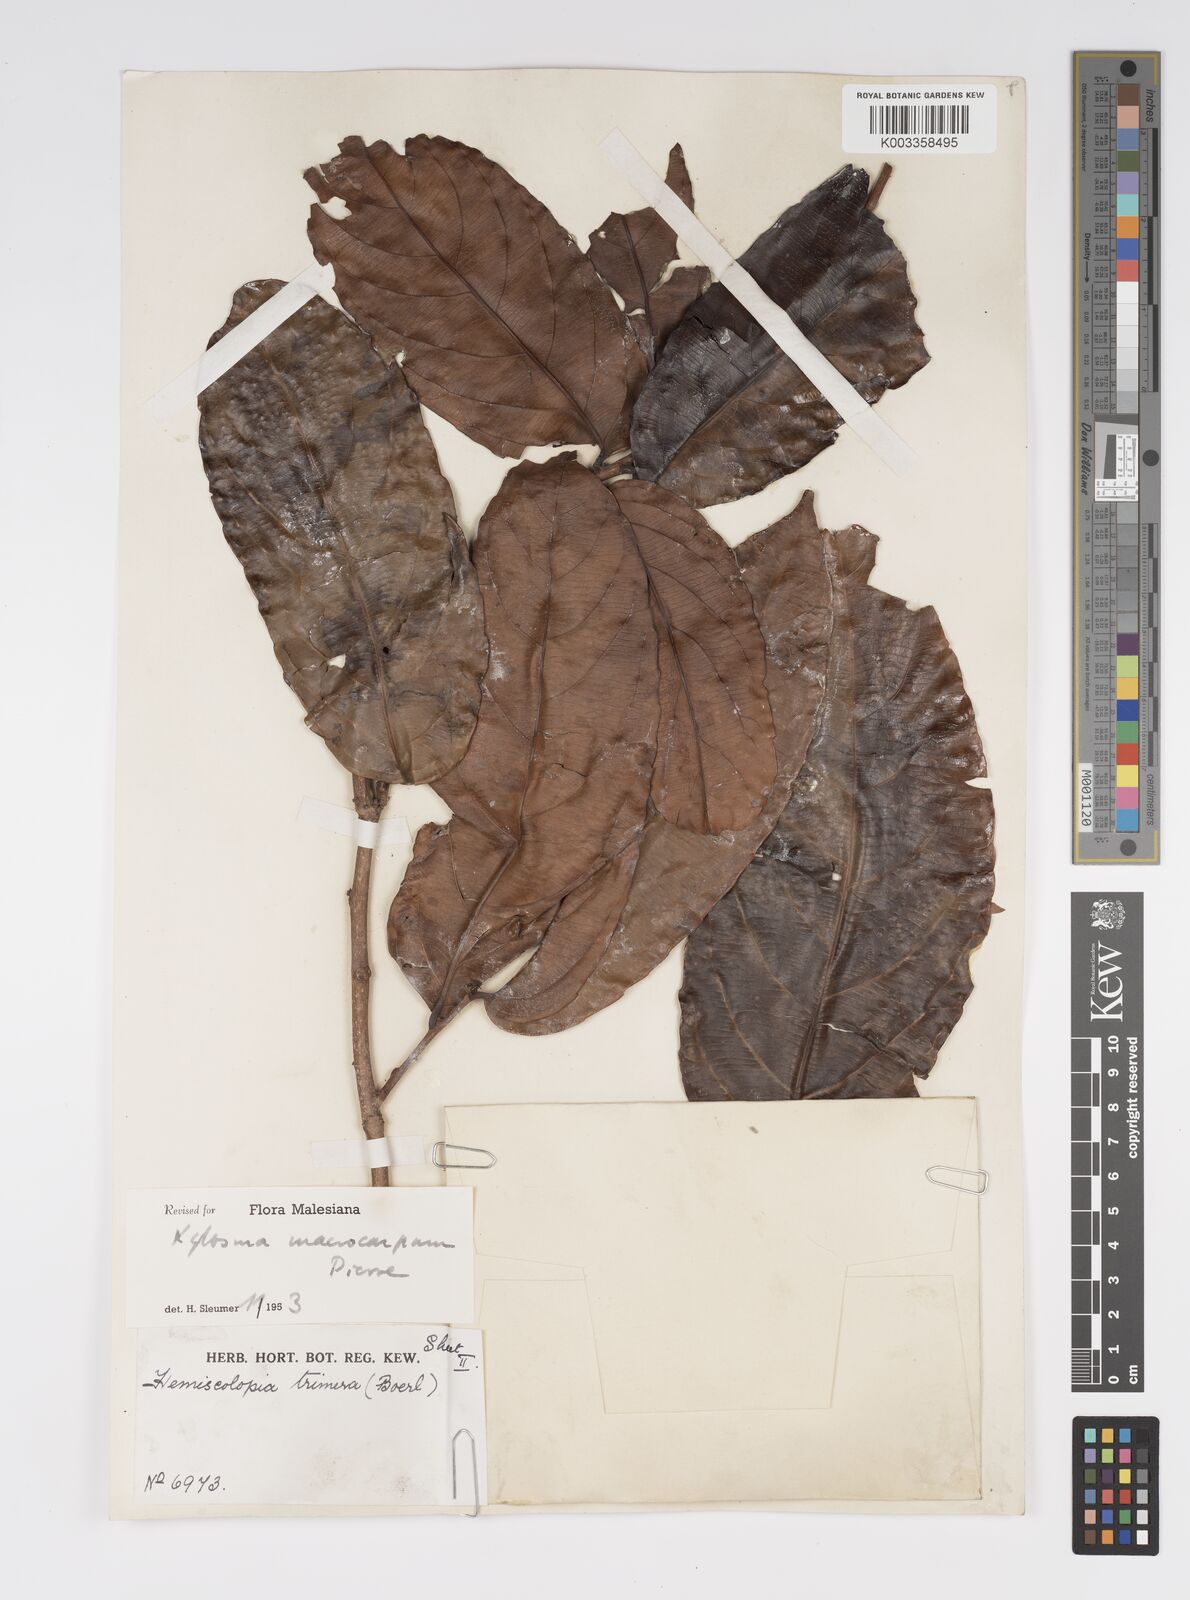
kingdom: Plantae
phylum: Tracheophyta
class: Magnoliopsida
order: Malpighiales
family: Salicaceae
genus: Hemiscolopia
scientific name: Hemiscolopia trimera
